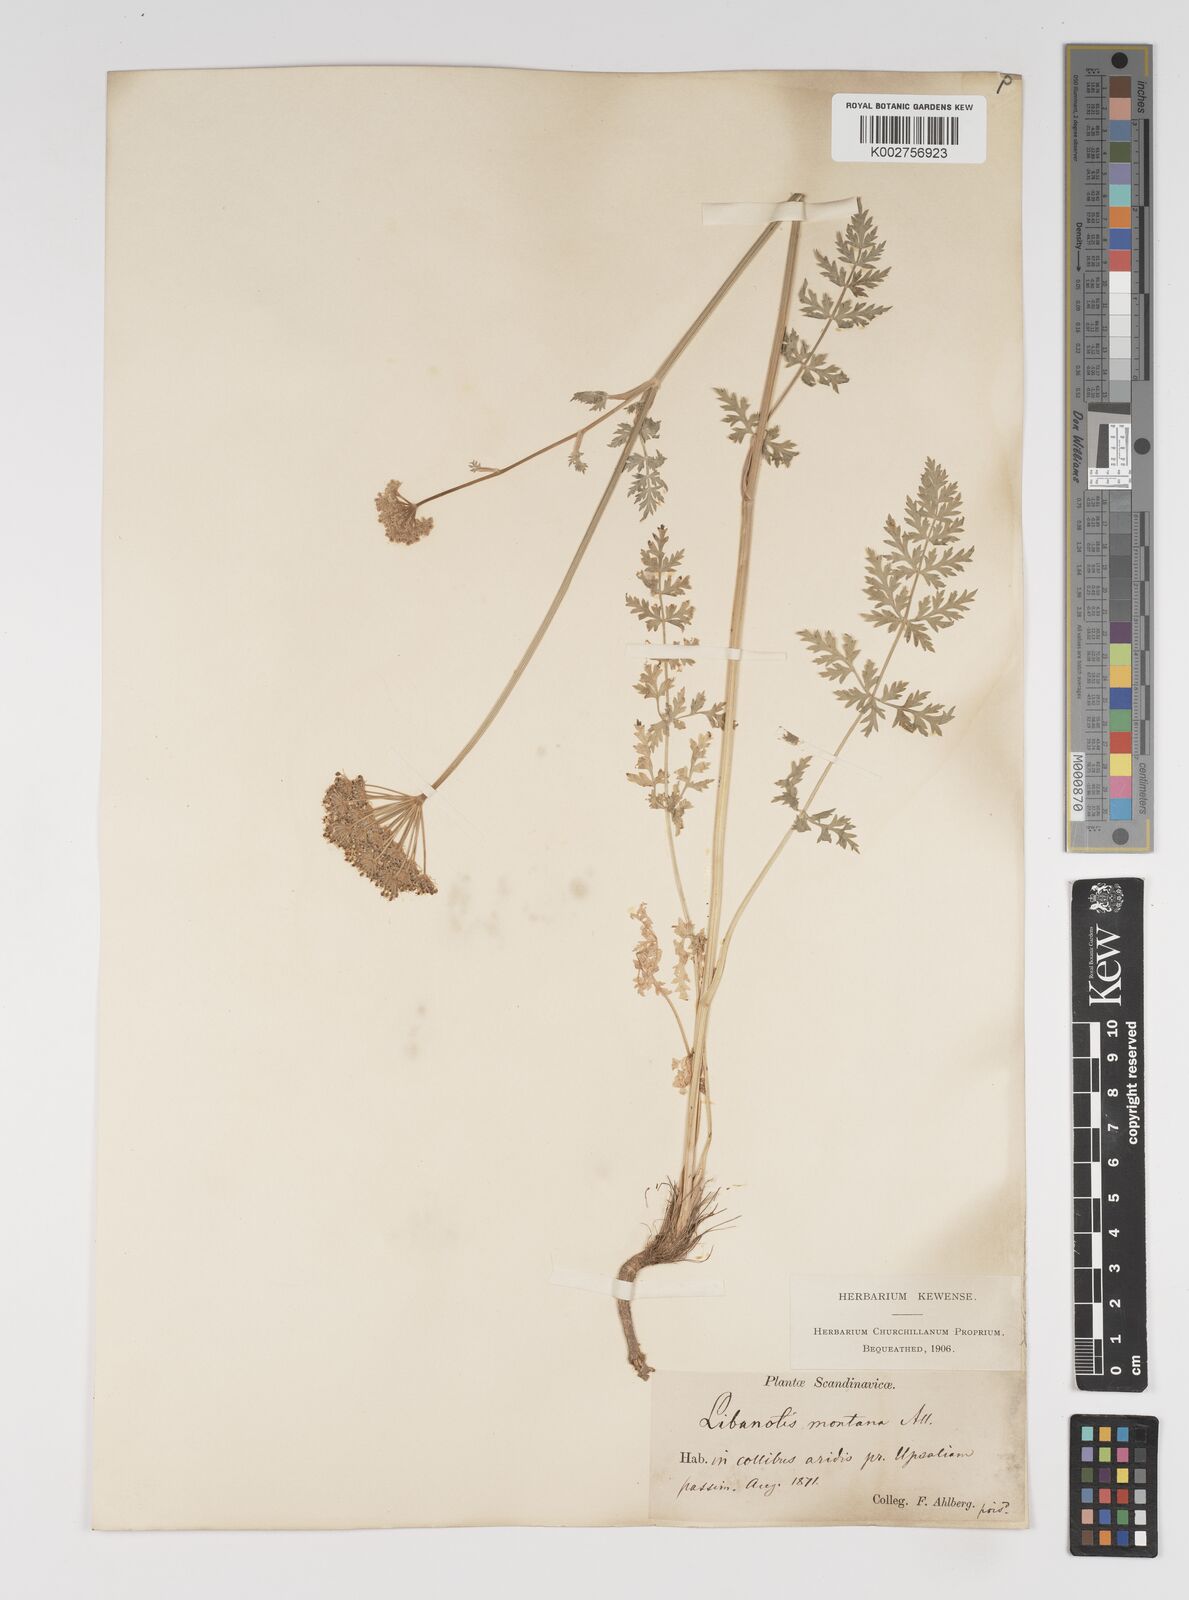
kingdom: Plantae
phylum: Tracheophyta
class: Magnoliopsida
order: Apiales
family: Apiaceae
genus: Seseli
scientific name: Seseli libanotis
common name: Mooncarrot
